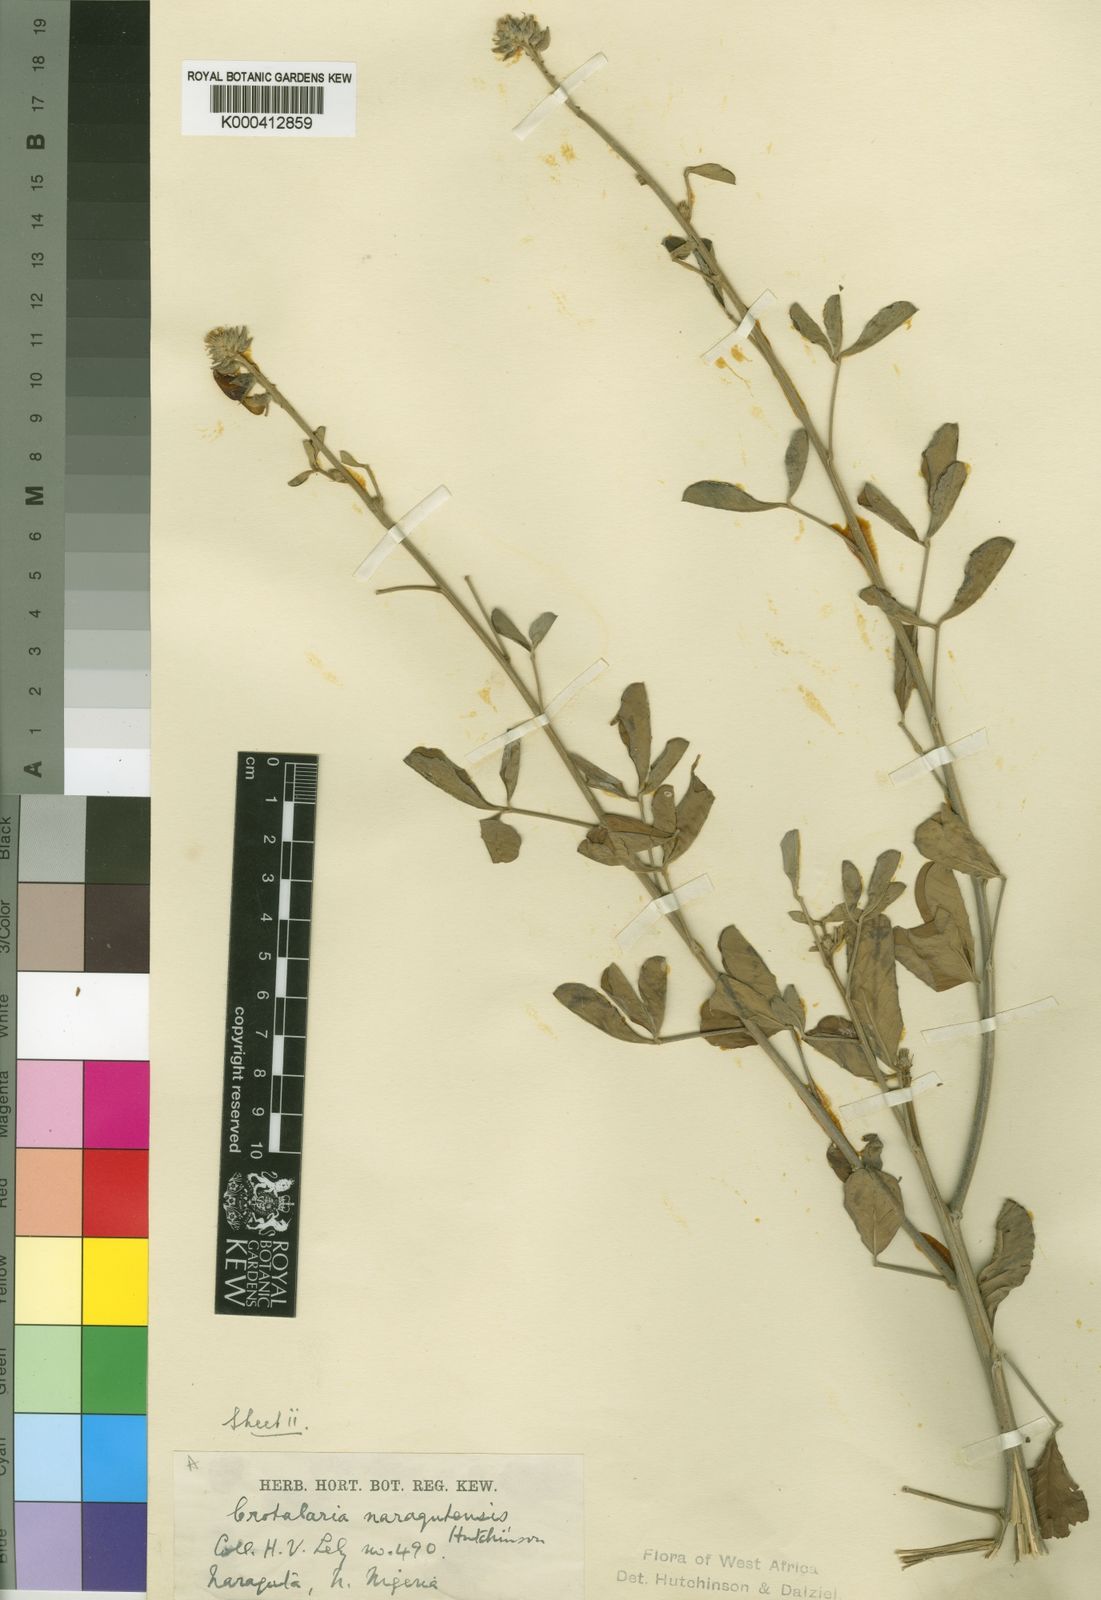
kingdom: Plantae
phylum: Tracheophyta
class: Magnoliopsida
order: Fabales
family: Fabaceae
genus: Crotalaria
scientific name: Crotalaria naragutensis
